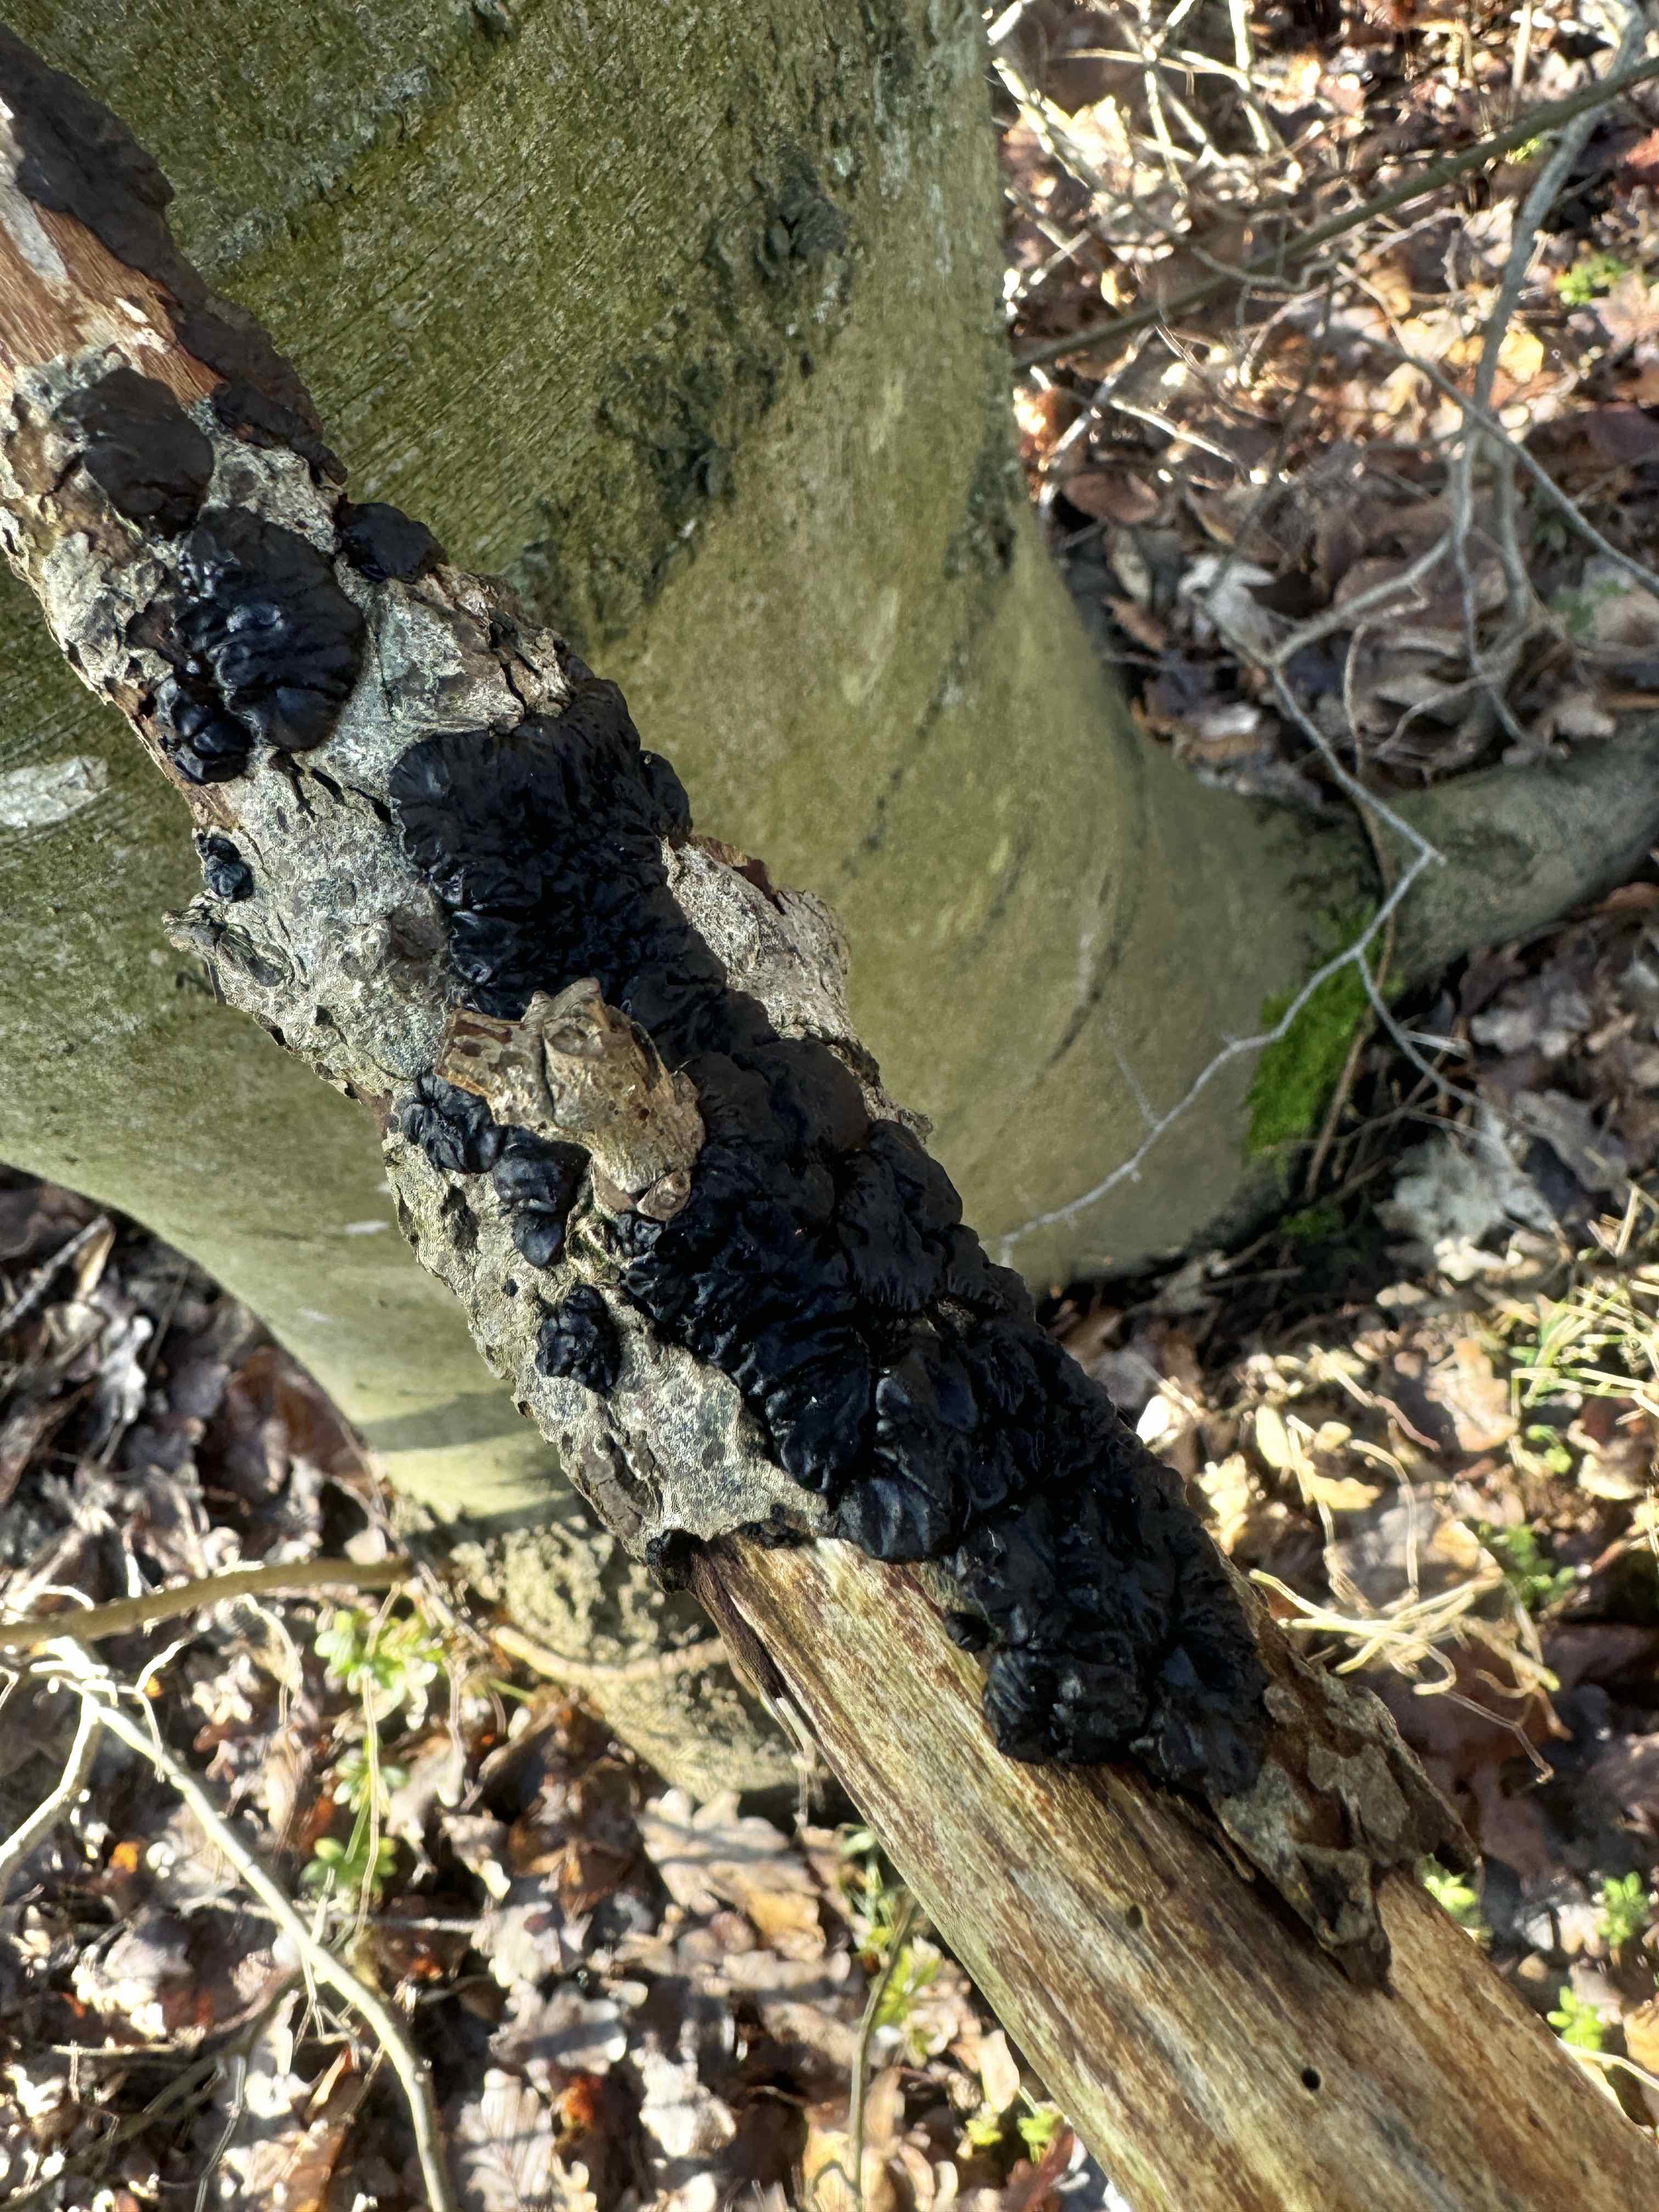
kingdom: Fungi
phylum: Basidiomycota
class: Agaricomycetes
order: Auriculariales
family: Auriculariaceae
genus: Exidia
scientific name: Exidia nigricans
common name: almindelig bævretop
